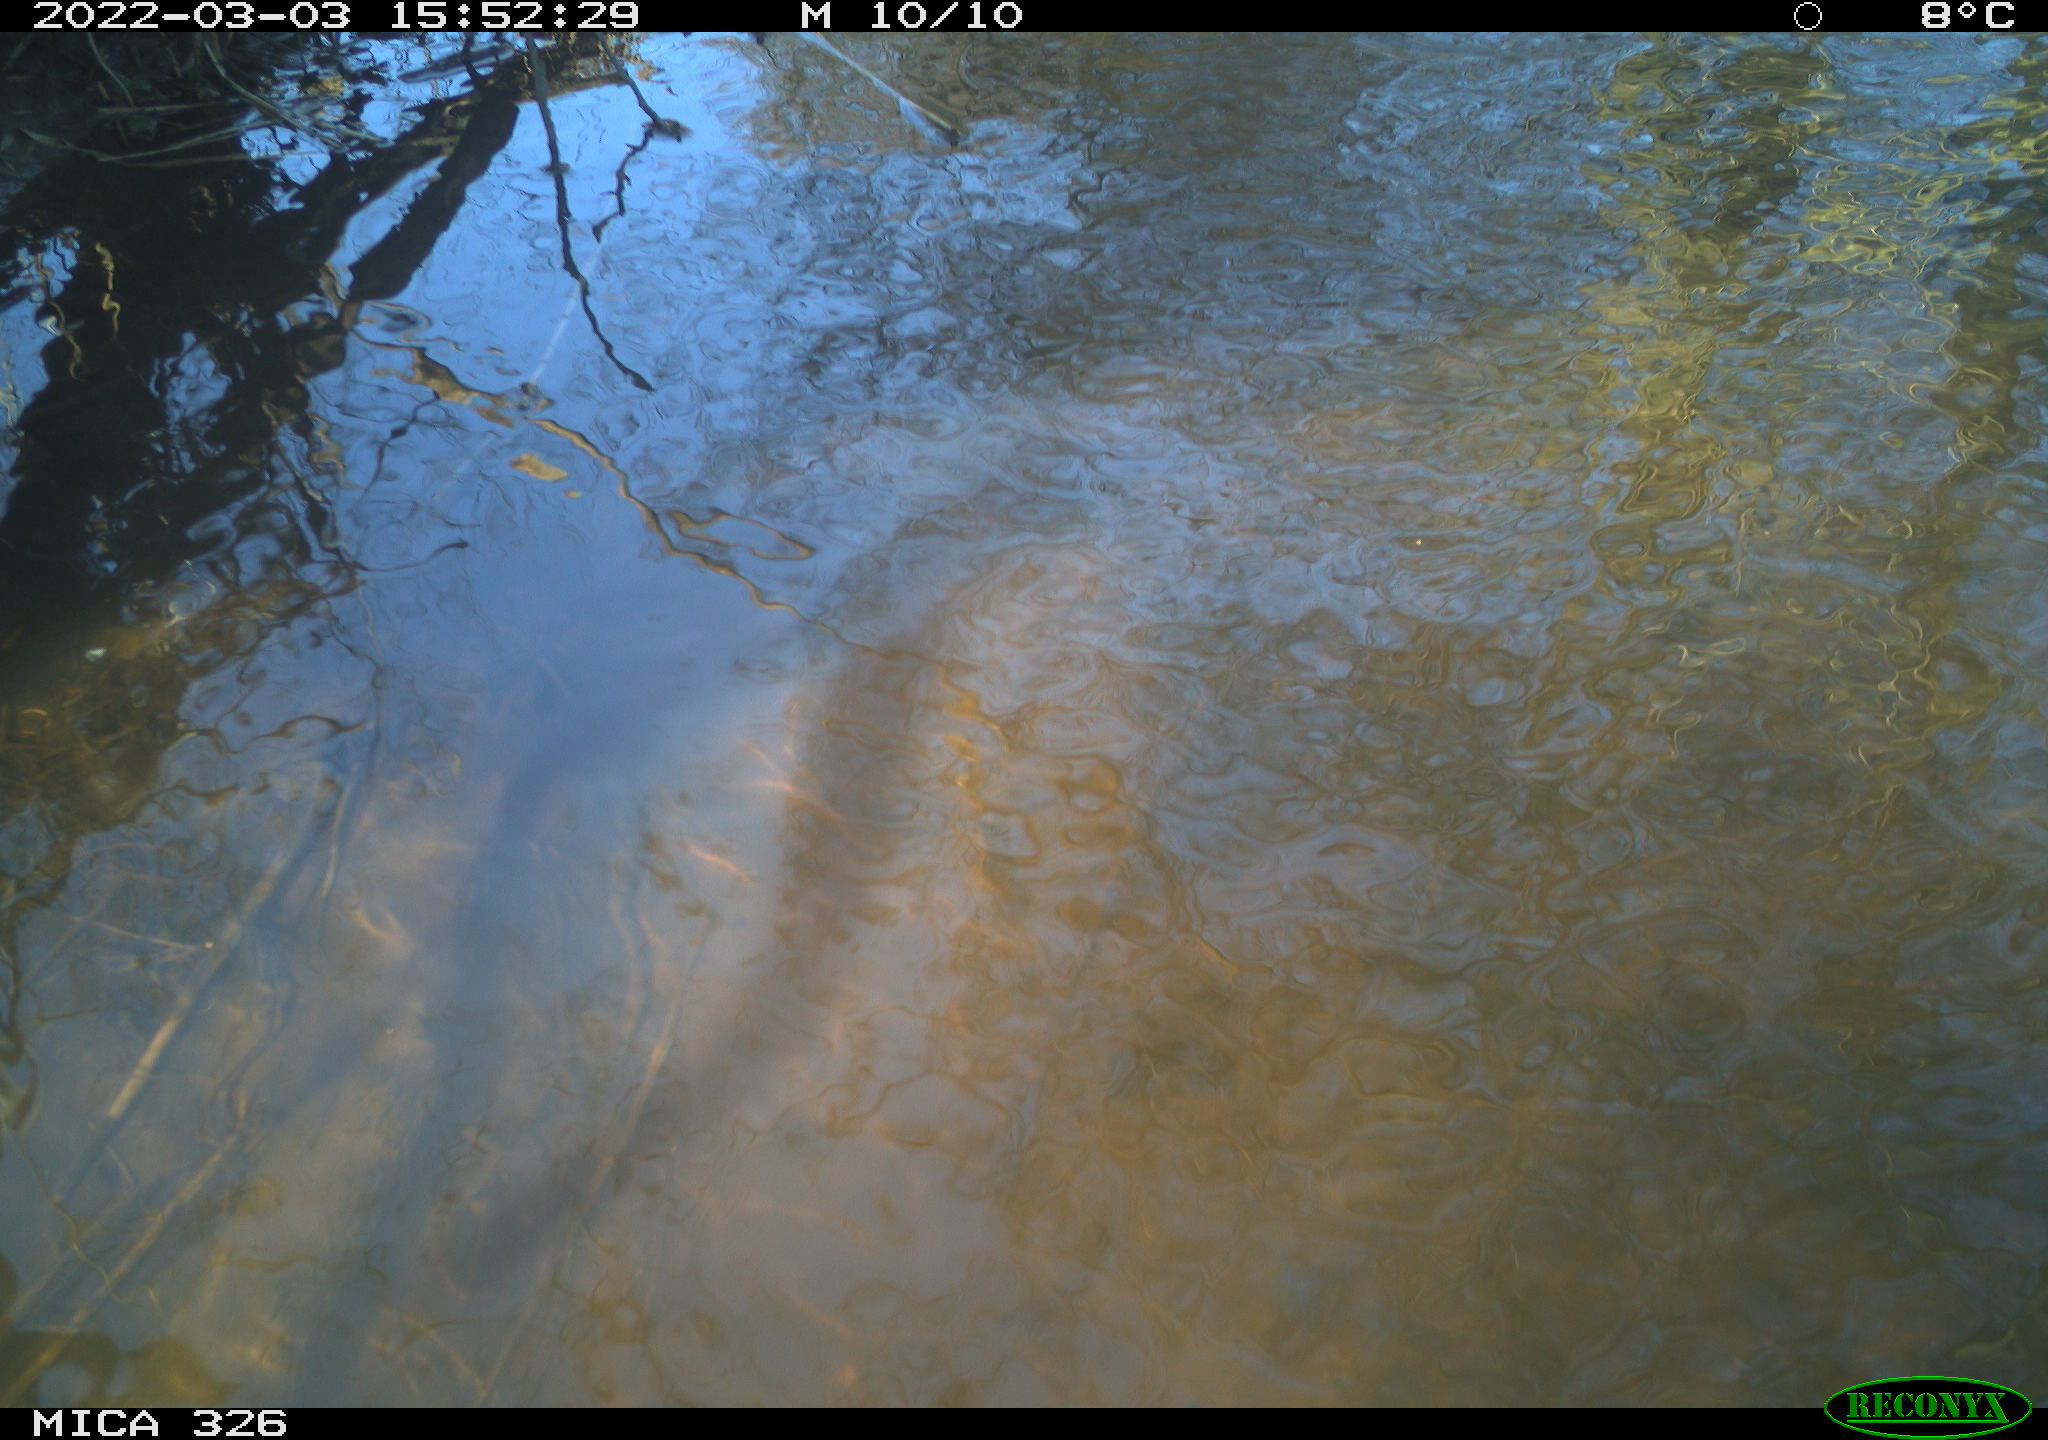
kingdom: Animalia
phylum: Chordata
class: Mammalia
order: Rodentia
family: Cricetidae
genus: Ondatra
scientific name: Ondatra zibethicus
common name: Muskrat
